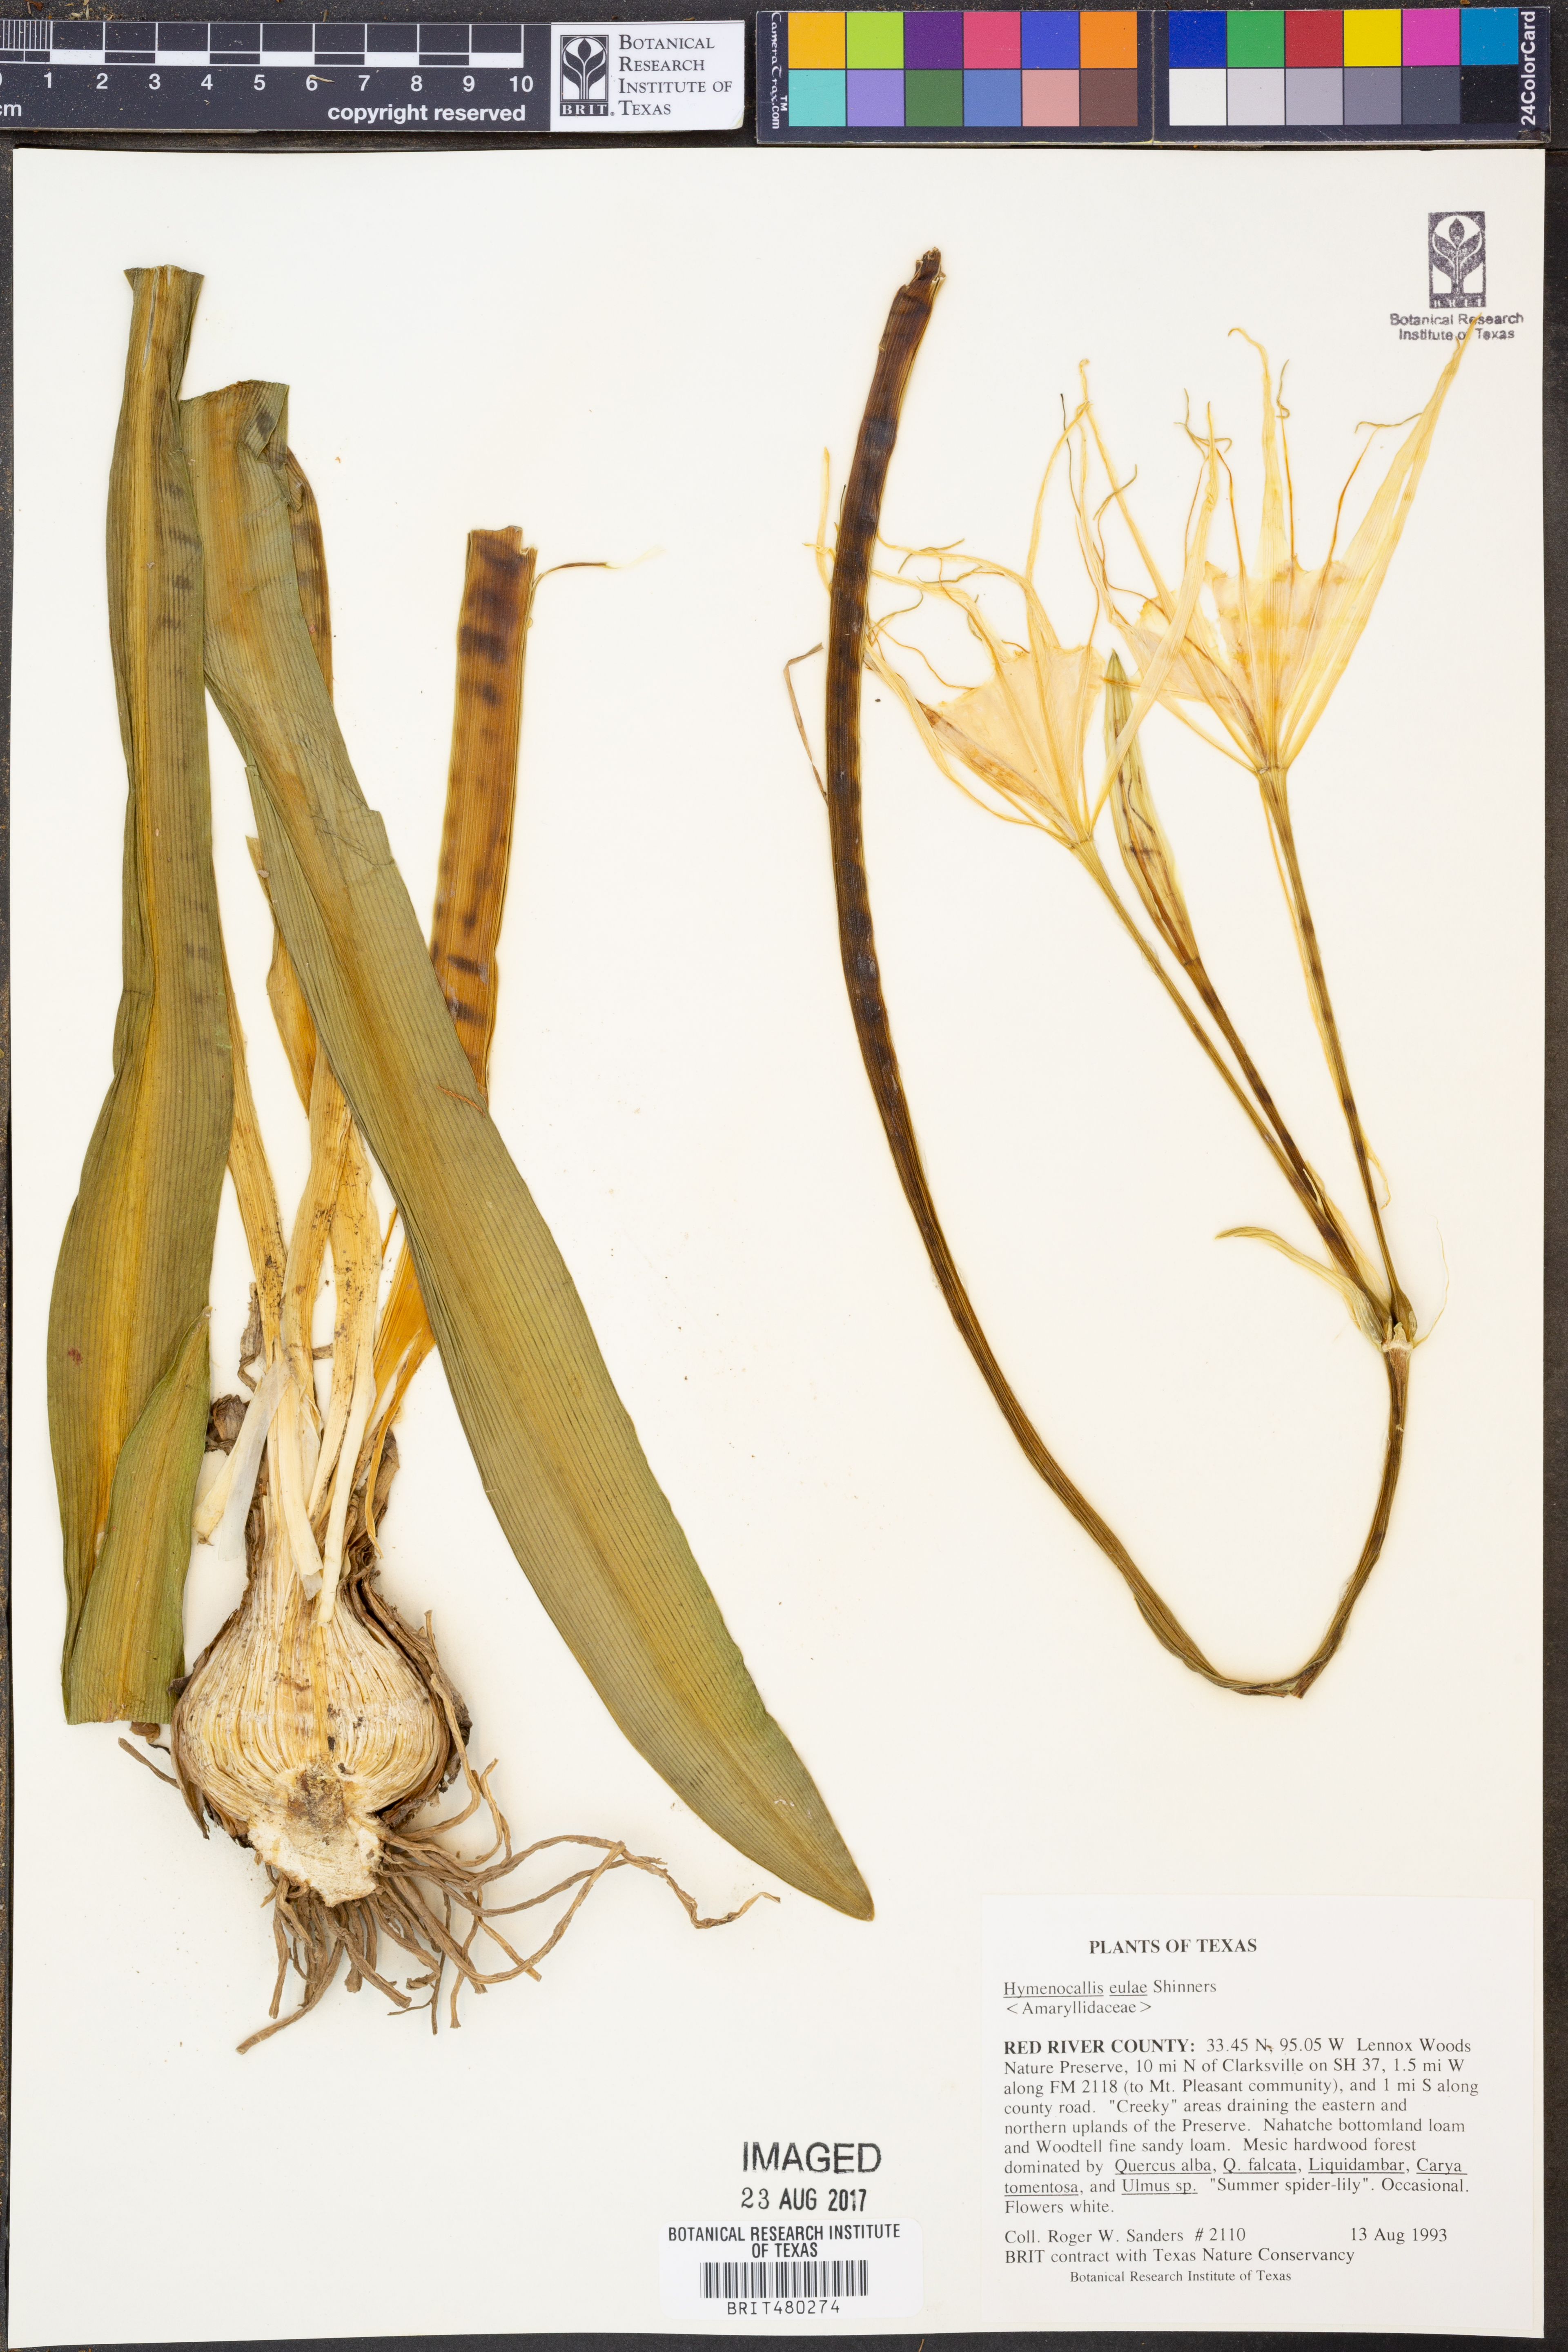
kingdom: Plantae
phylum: Tracheophyta
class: Liliopsida
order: Asparagales
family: Amaryllidaceae
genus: Hymenocallis
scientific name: Hymenocallis occidentalis
